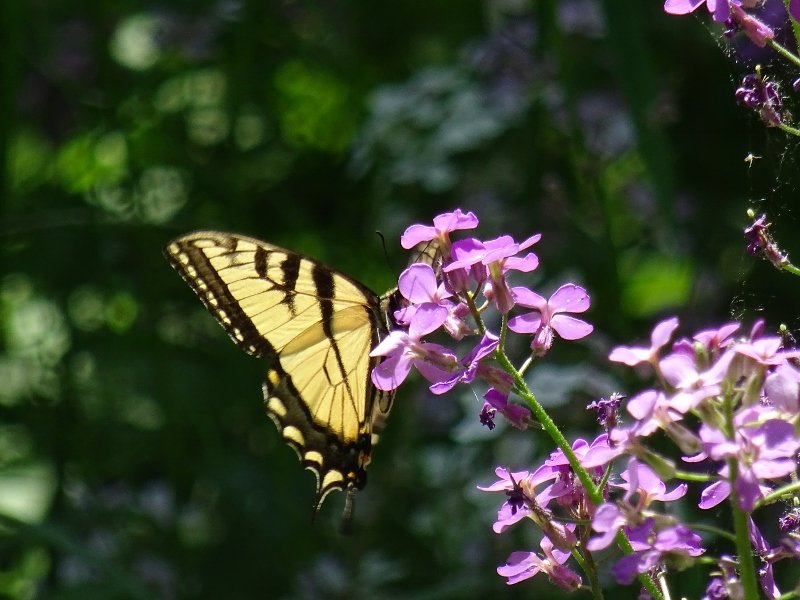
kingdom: Animalia
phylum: Arthropoda
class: Insecta
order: Lepidoptera
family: Papilionidae
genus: Pterourus
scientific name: Pterourus glaucus
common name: Eastern Tiger Swallowtail
